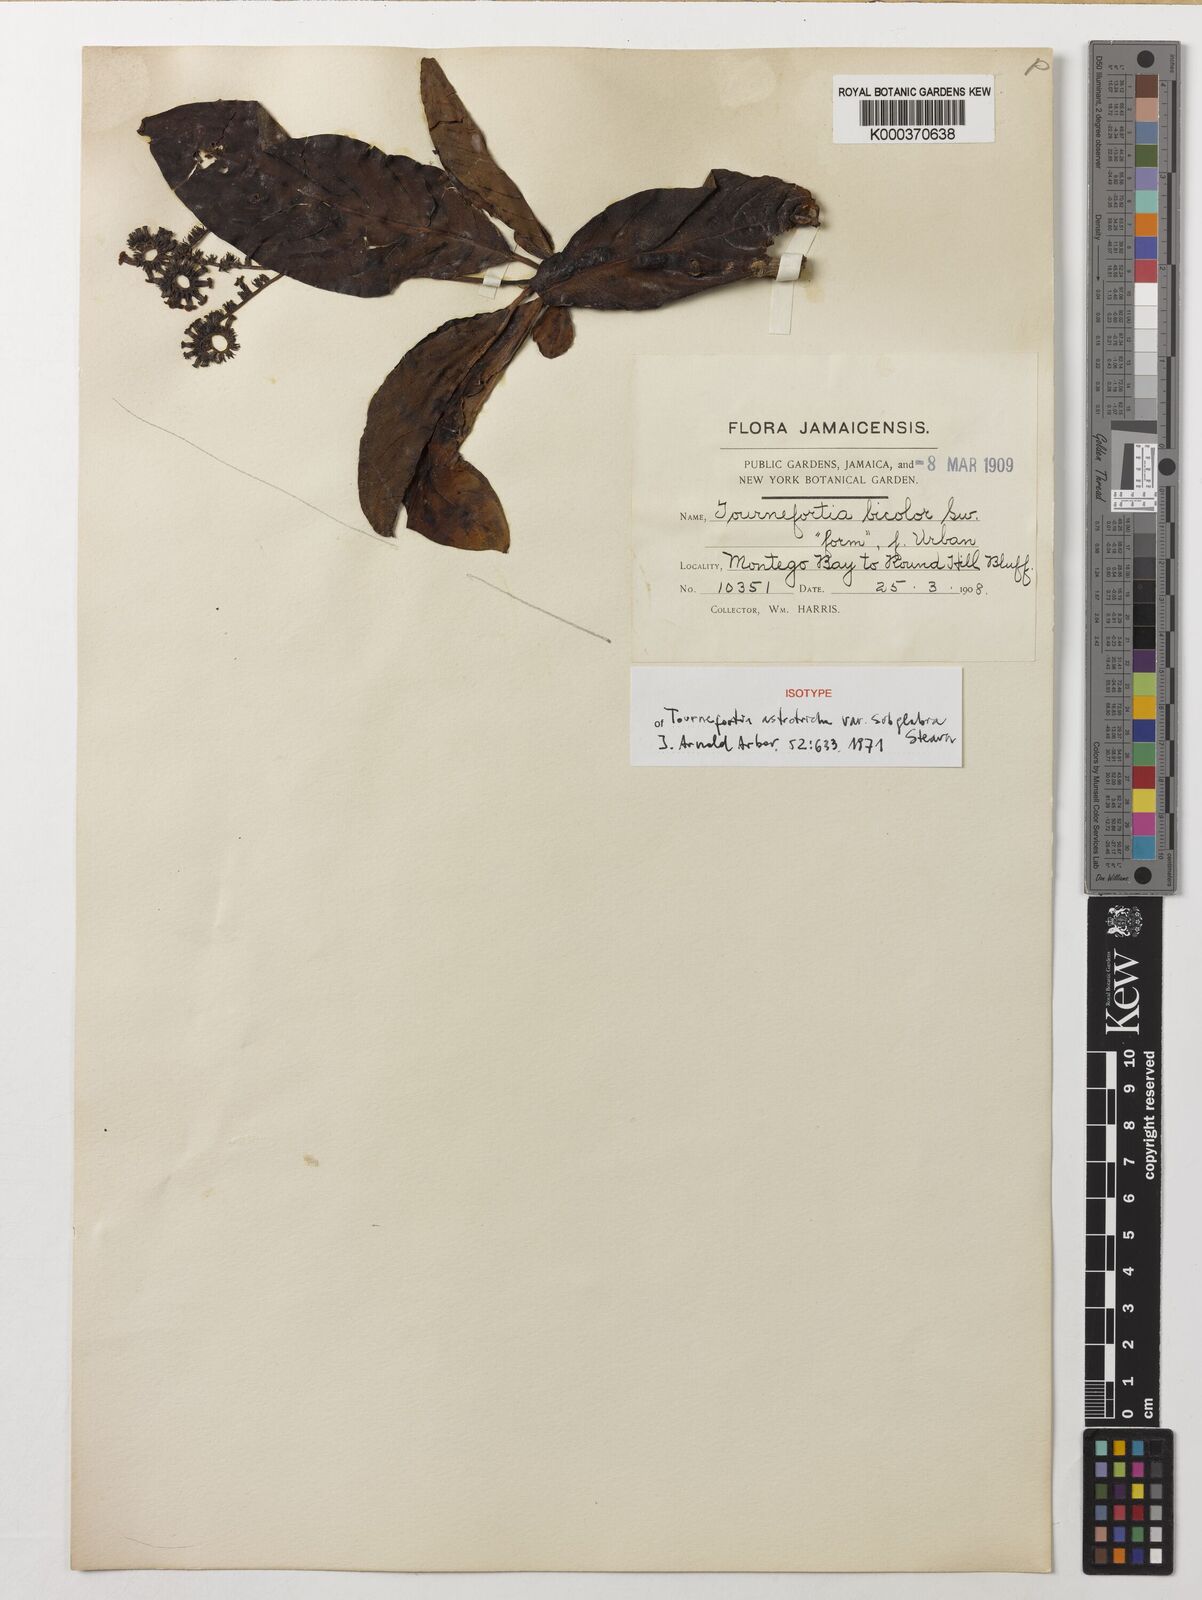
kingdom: Plantae
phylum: Tracheophyta
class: Magnoliopsida
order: Boraginales
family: Heliotropiaceae
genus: Heliotropium
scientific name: Heliotropium astrotrichum
